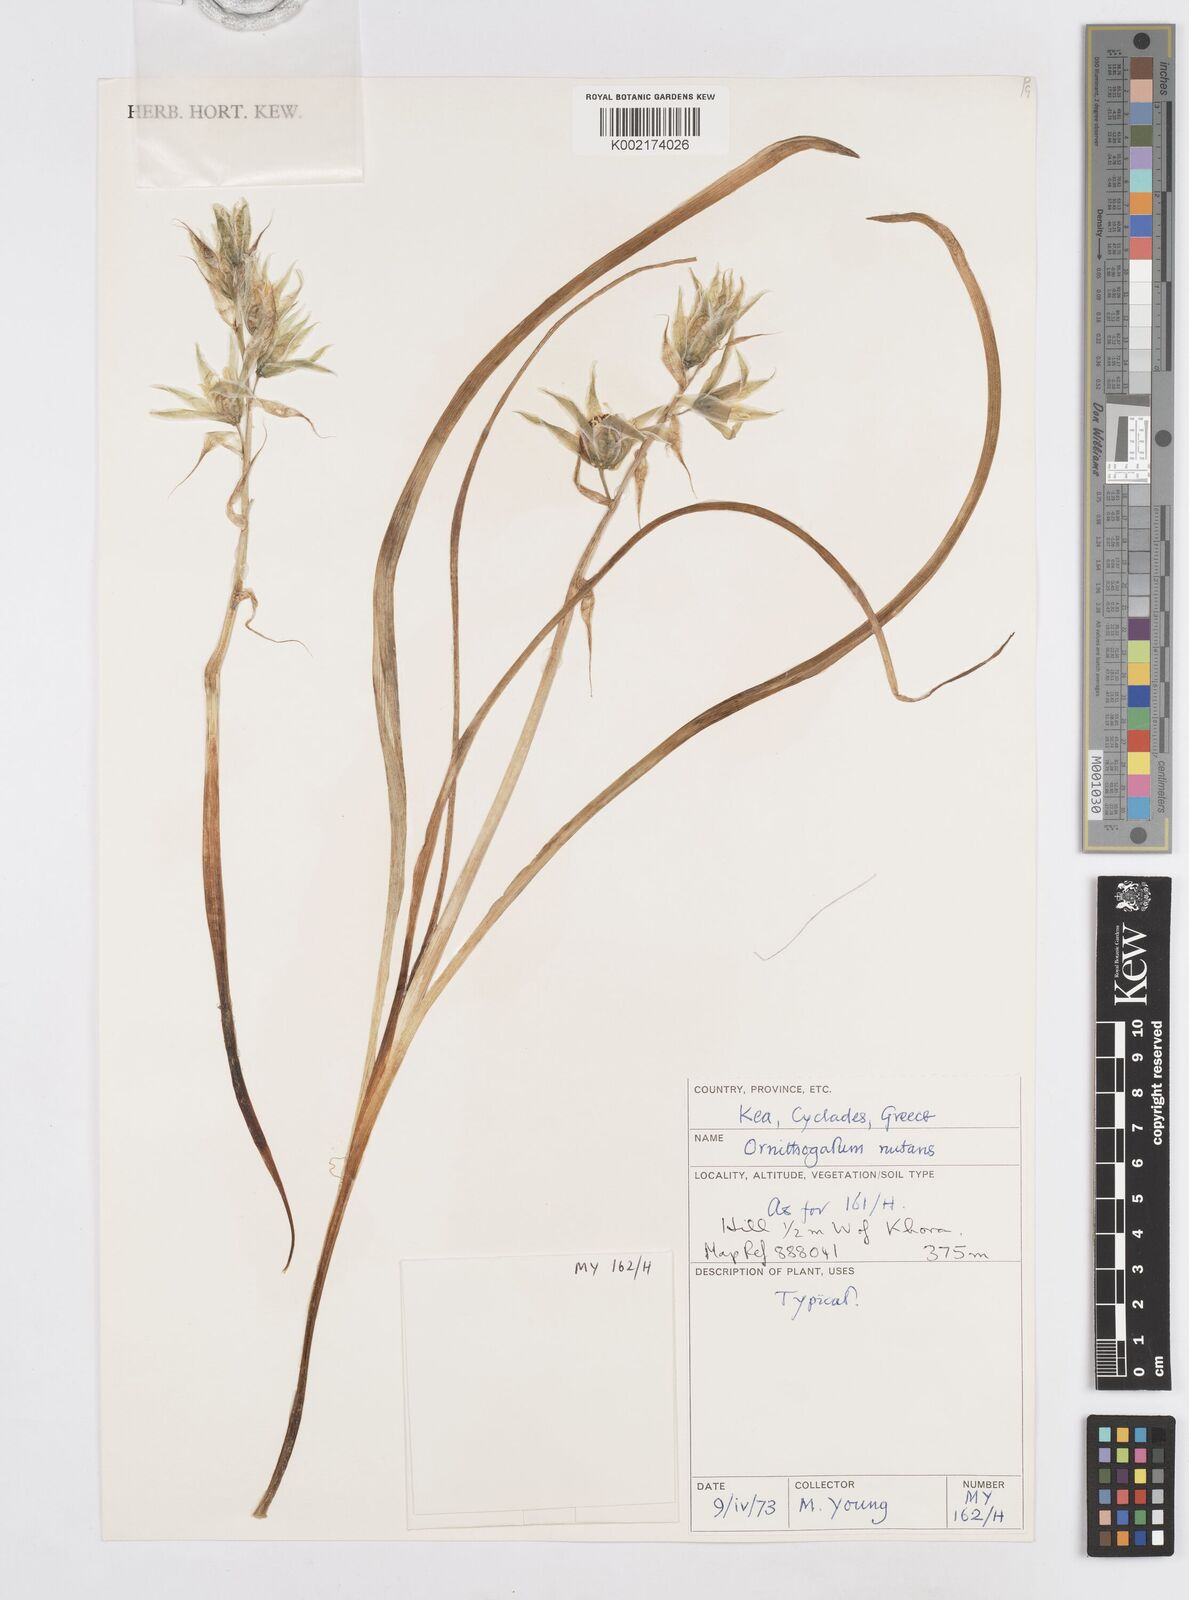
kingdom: Plantae
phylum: Tracheophyta
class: Liliopsida
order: Asparagales
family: Asparagaceae
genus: Ornithogalum
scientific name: Ornithogalum nutans
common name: Drooping star-of-bethlehem
